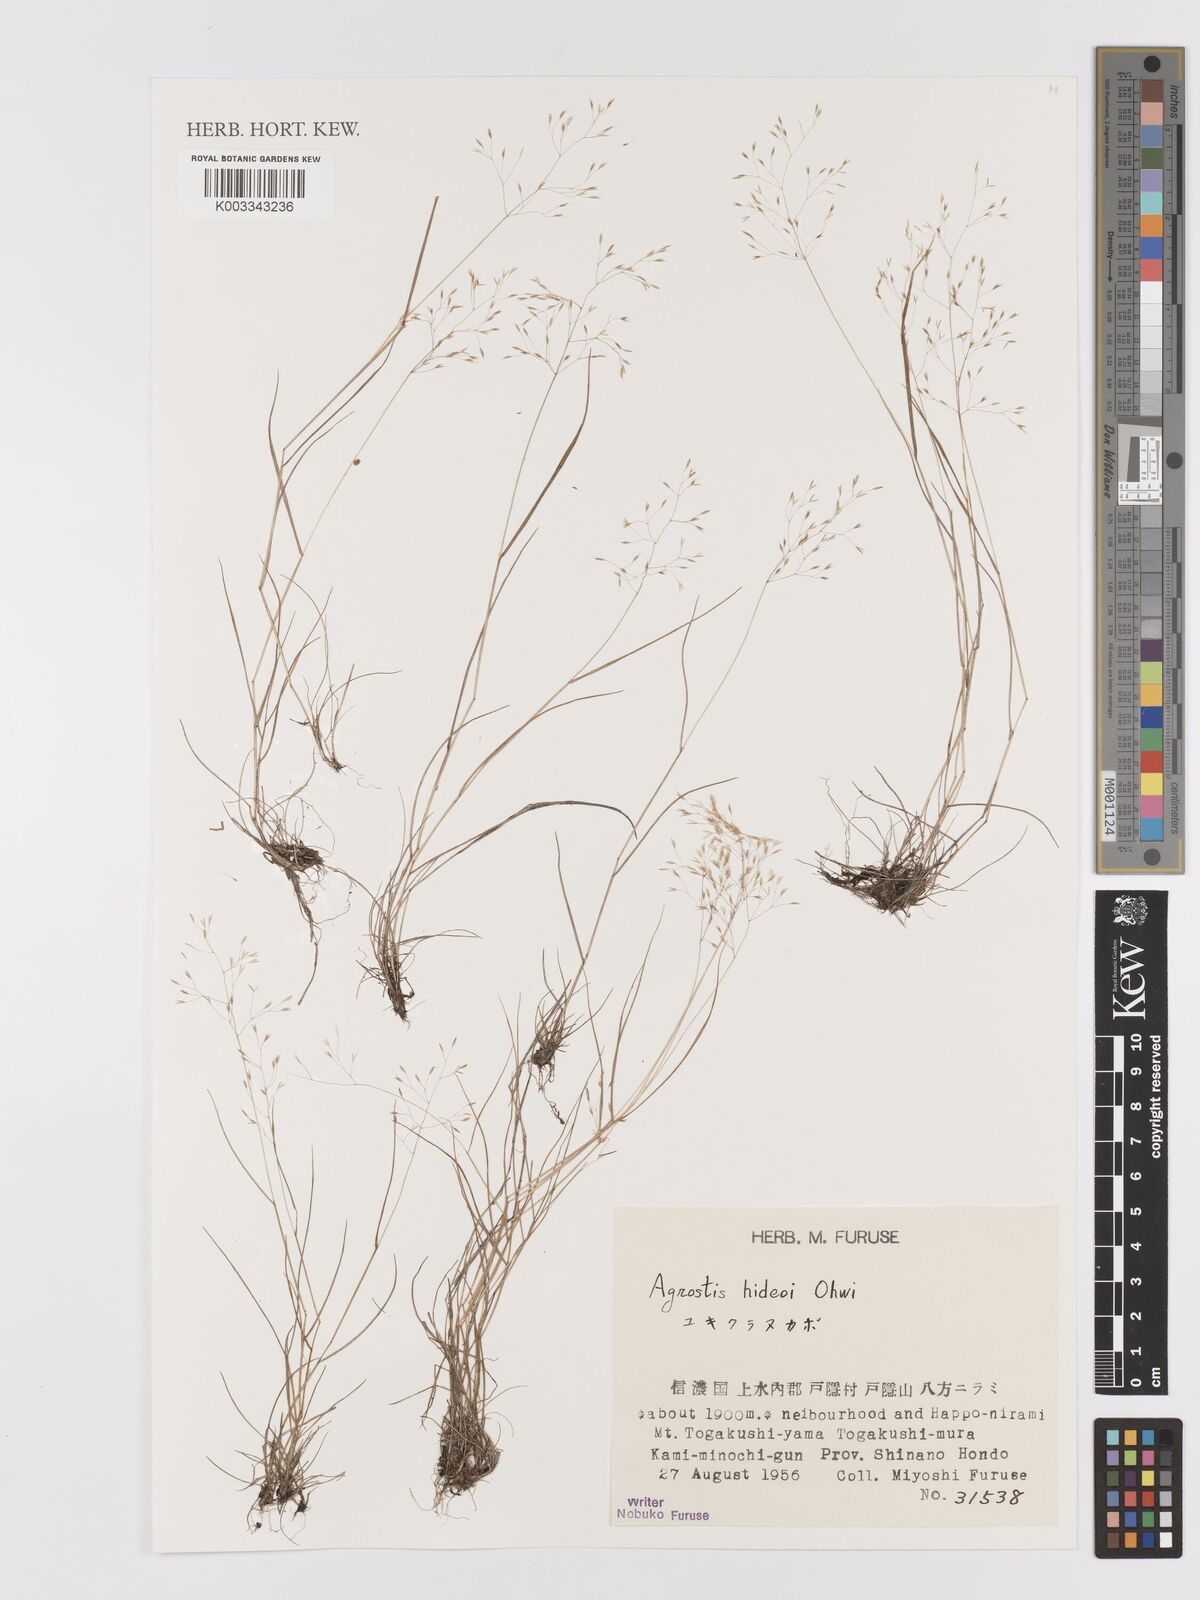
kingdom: Plantae
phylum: Tracheophyta
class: Liliopsida
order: Poales
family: Poaceae
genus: Agrostis
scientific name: Agrostis hideoi
